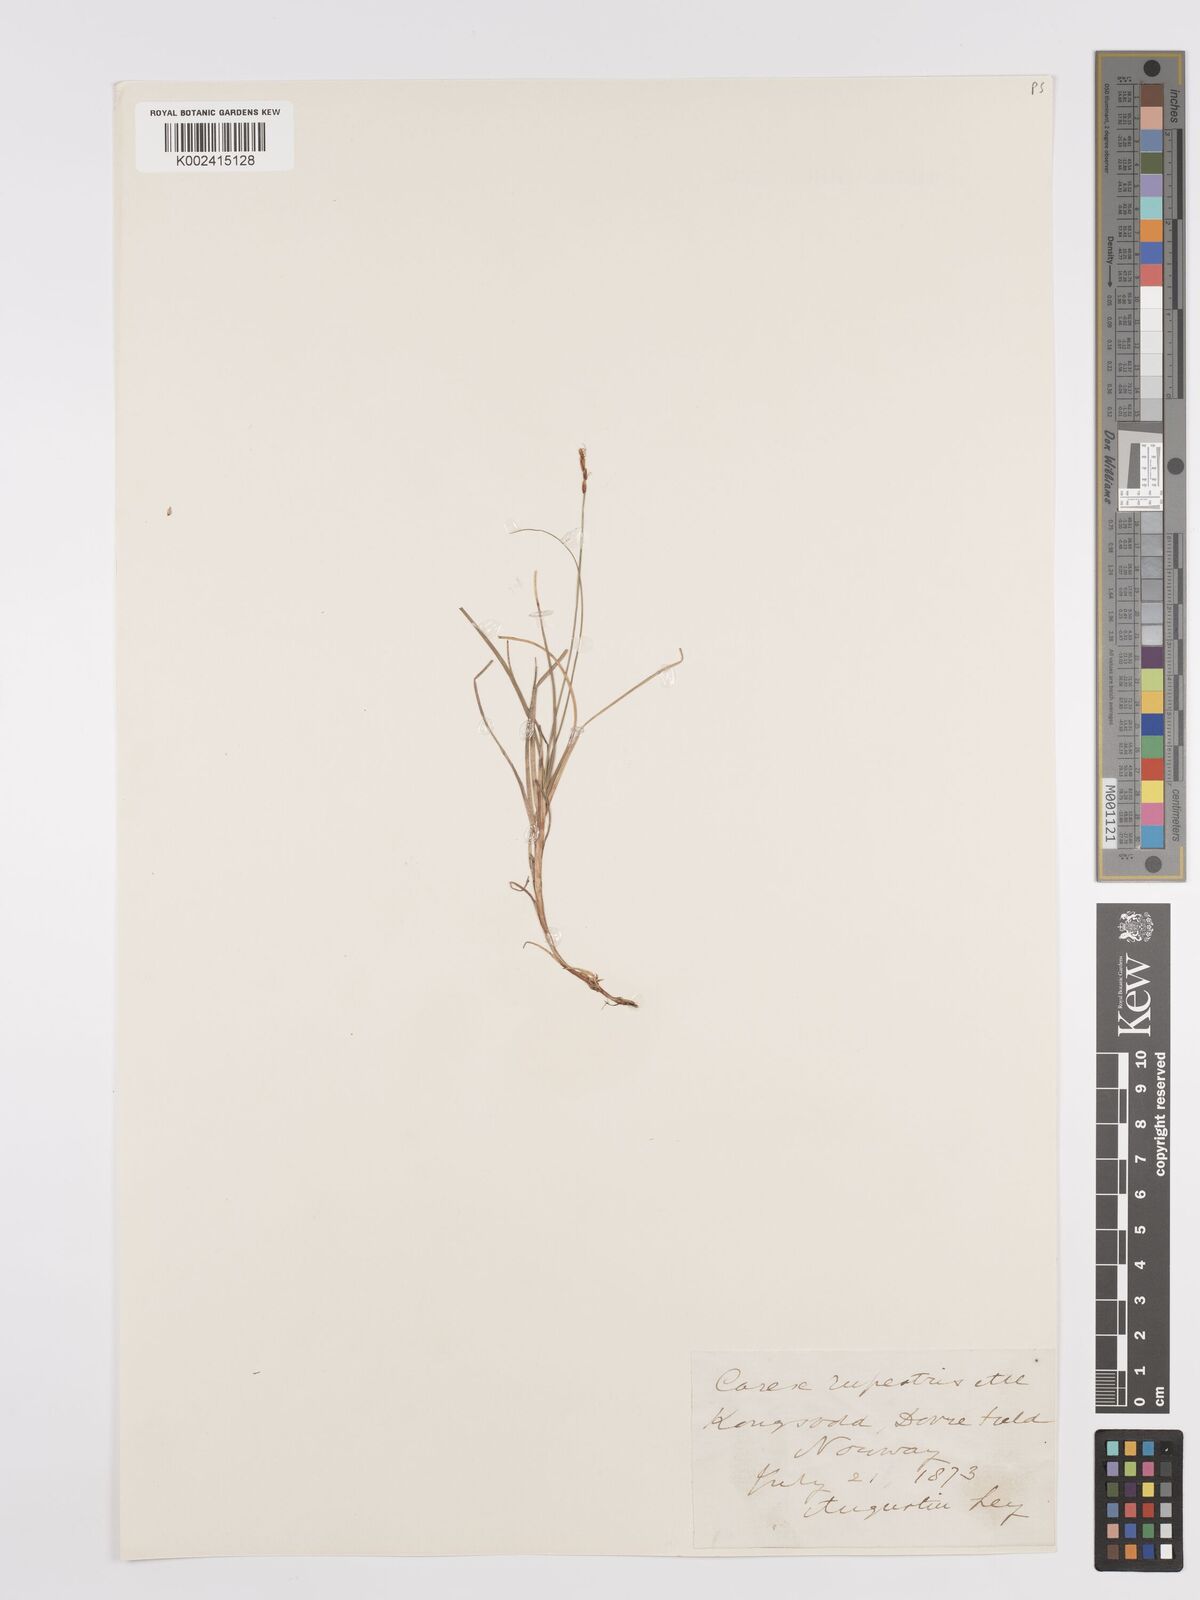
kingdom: Plantae
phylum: Tracheophyta
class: Liliopsida
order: Poales
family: Cyperaceae
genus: Carex
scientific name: Carex rupestris
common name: Rock sedge
